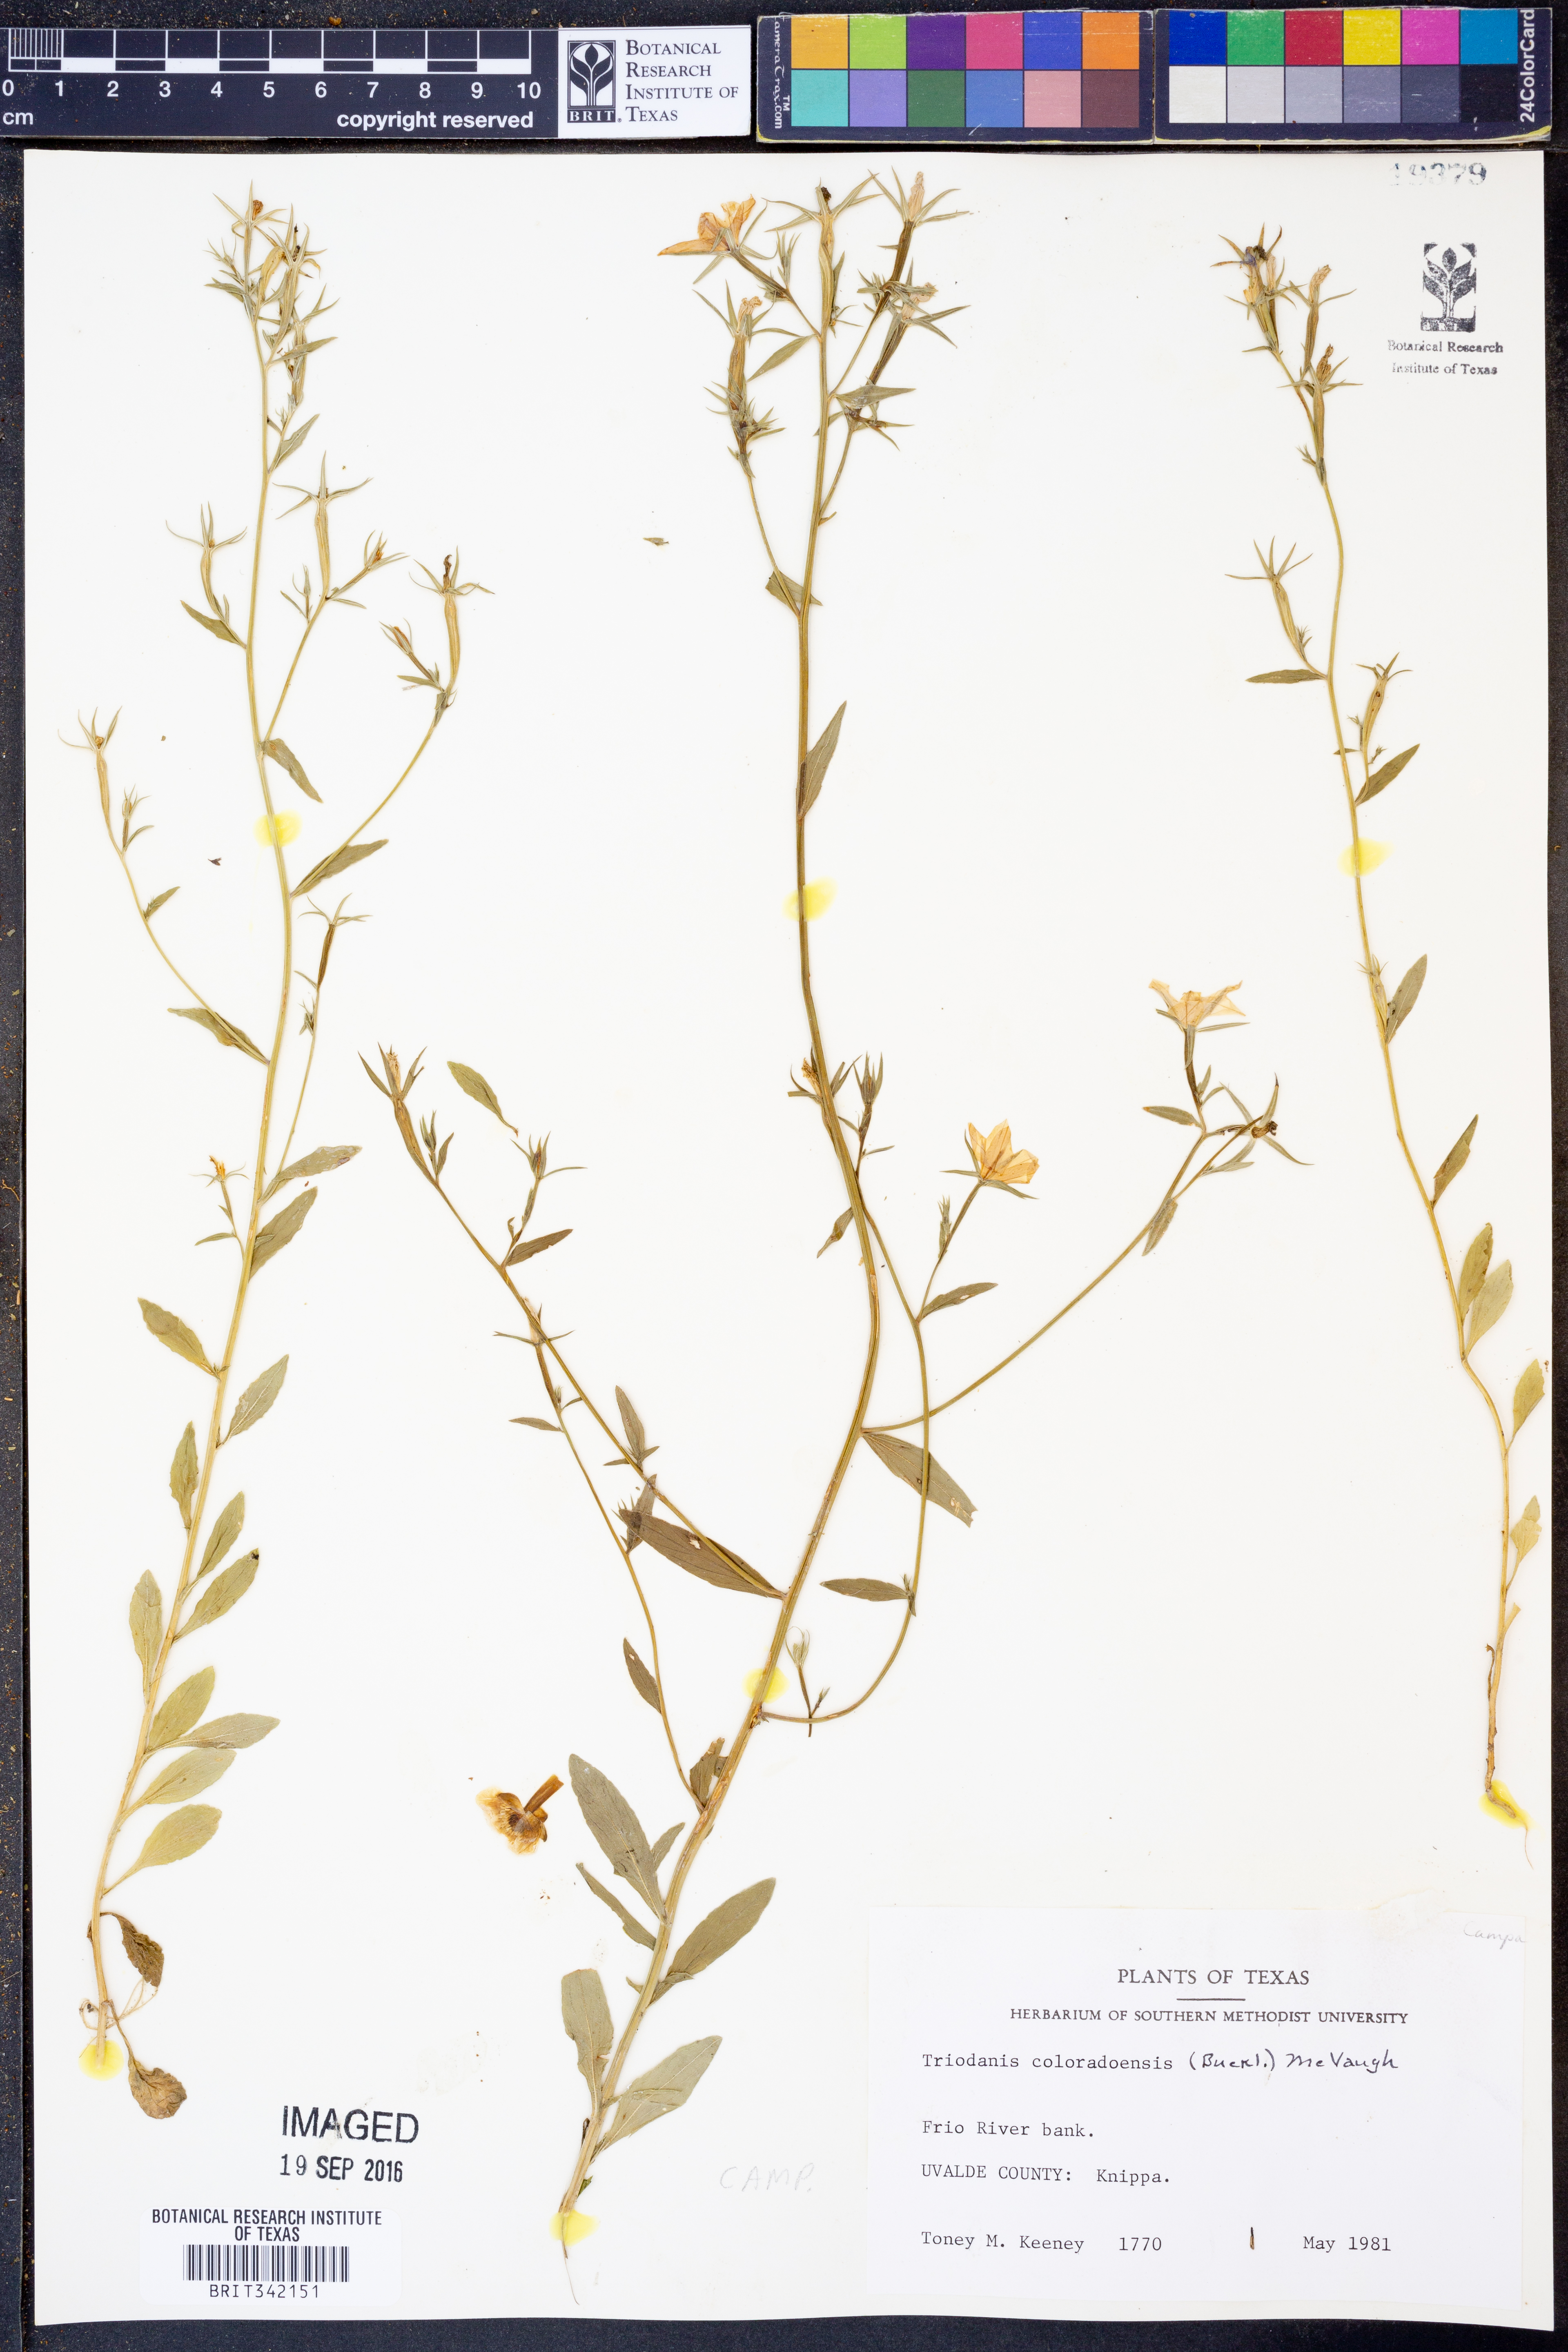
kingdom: Plantae
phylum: Tracheophyta
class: Magnoliopsida
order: Asterales
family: Campanulaceae
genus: Triodanis
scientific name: Triodanis coloradoensis
